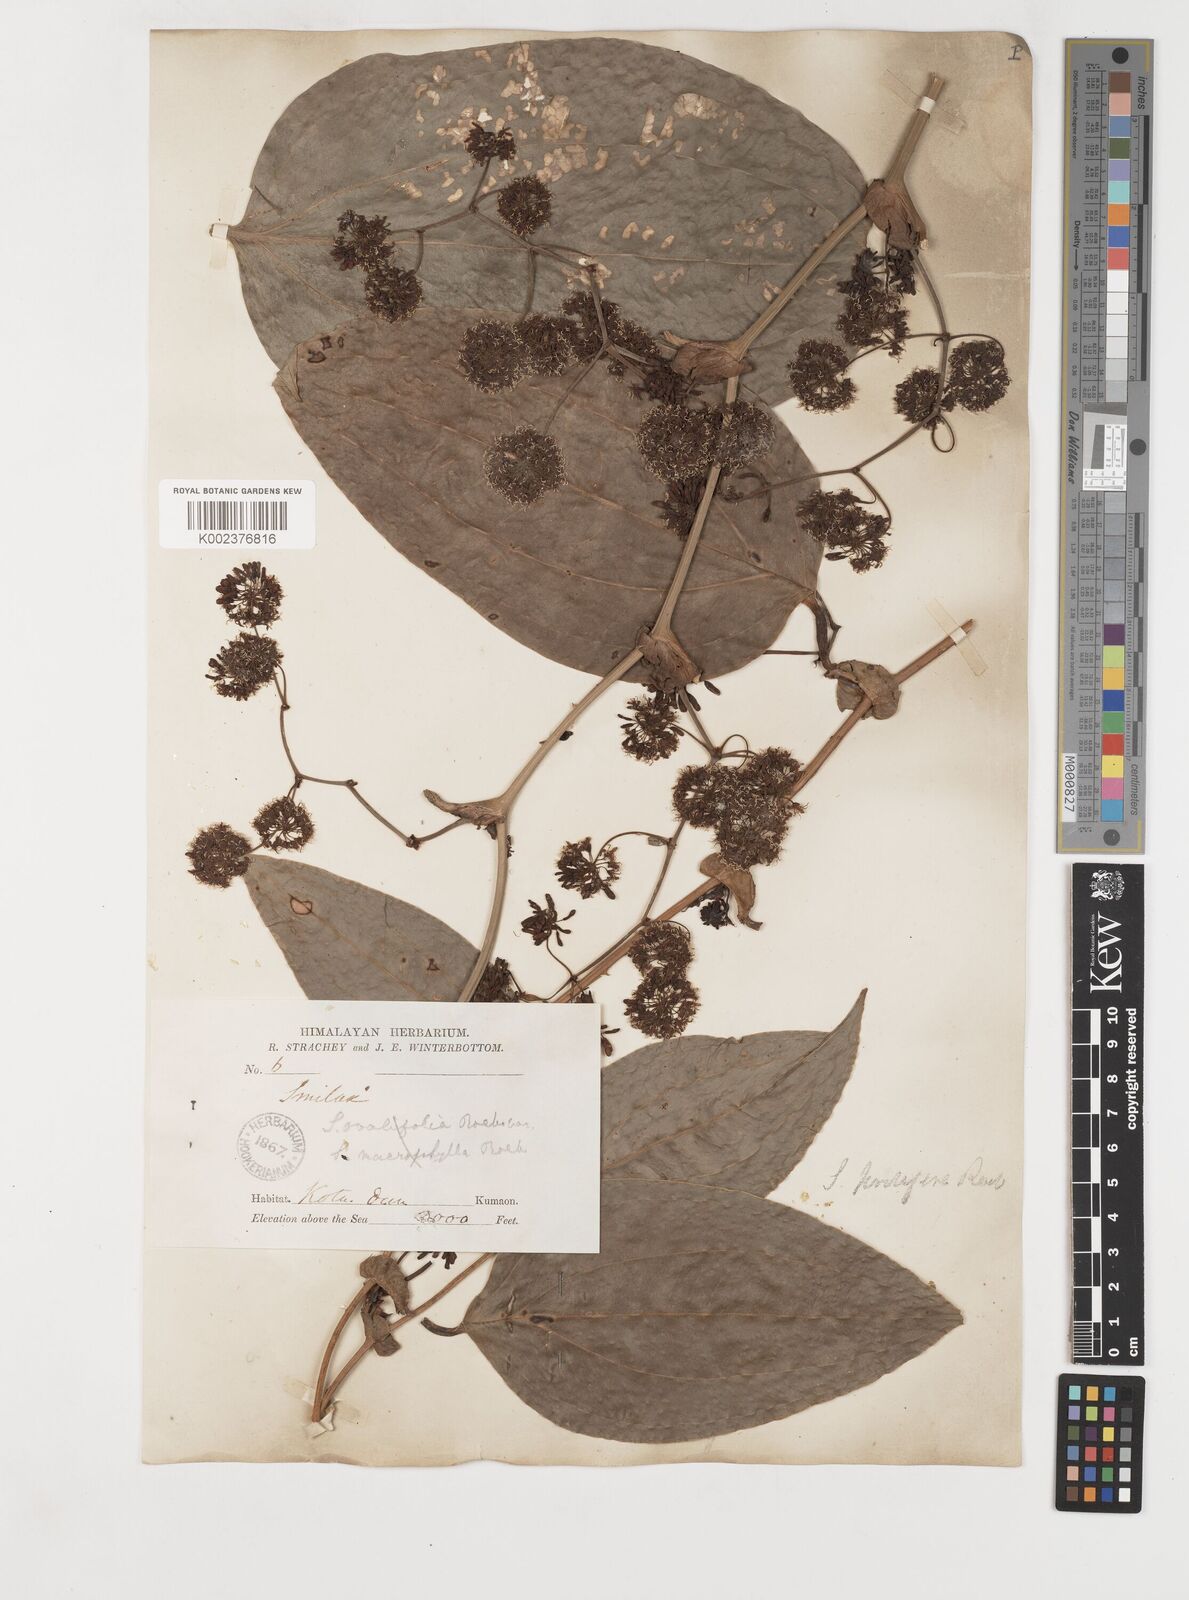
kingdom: Plantae
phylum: Tracheophyta
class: Liliopsida
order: Liliales
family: Smilacaceae
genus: Smilax
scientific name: Smilax prolifera
